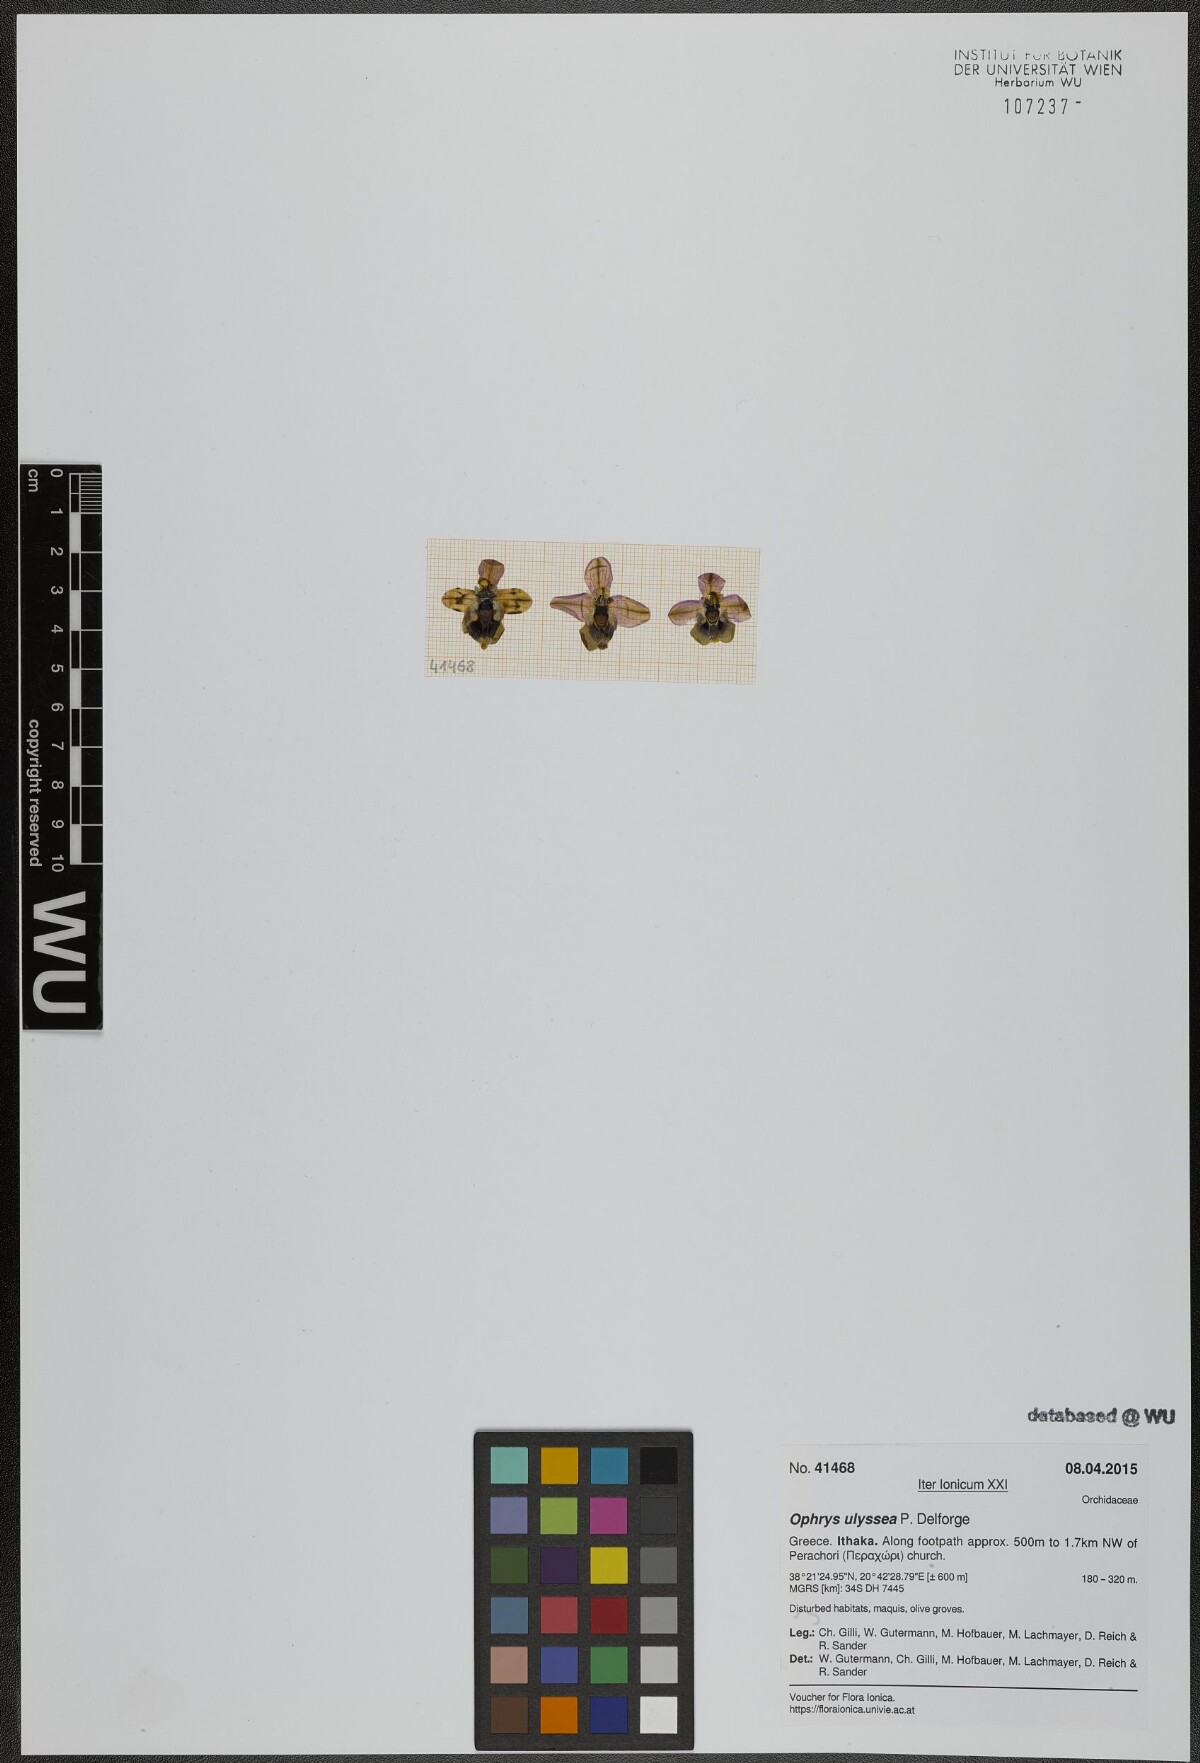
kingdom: Plantae
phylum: Tracheophyta
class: Liliopsida
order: Asparagales
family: Orchidaceae
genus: Ophrys
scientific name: Ophrys tenthredinifera
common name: Sawfly orchid
